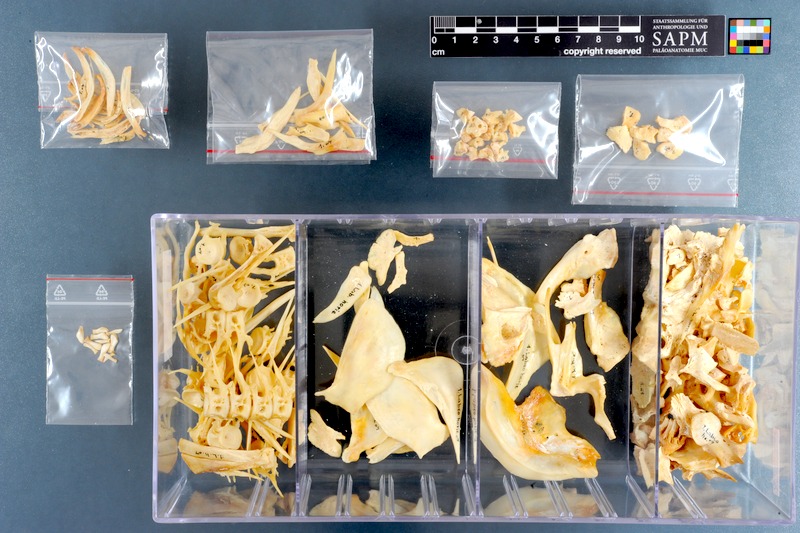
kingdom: Animalia
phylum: Chordata
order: Cypriniformes
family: Cyprinidae
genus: Labeo
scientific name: Labeo horie
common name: Assuan labeo
